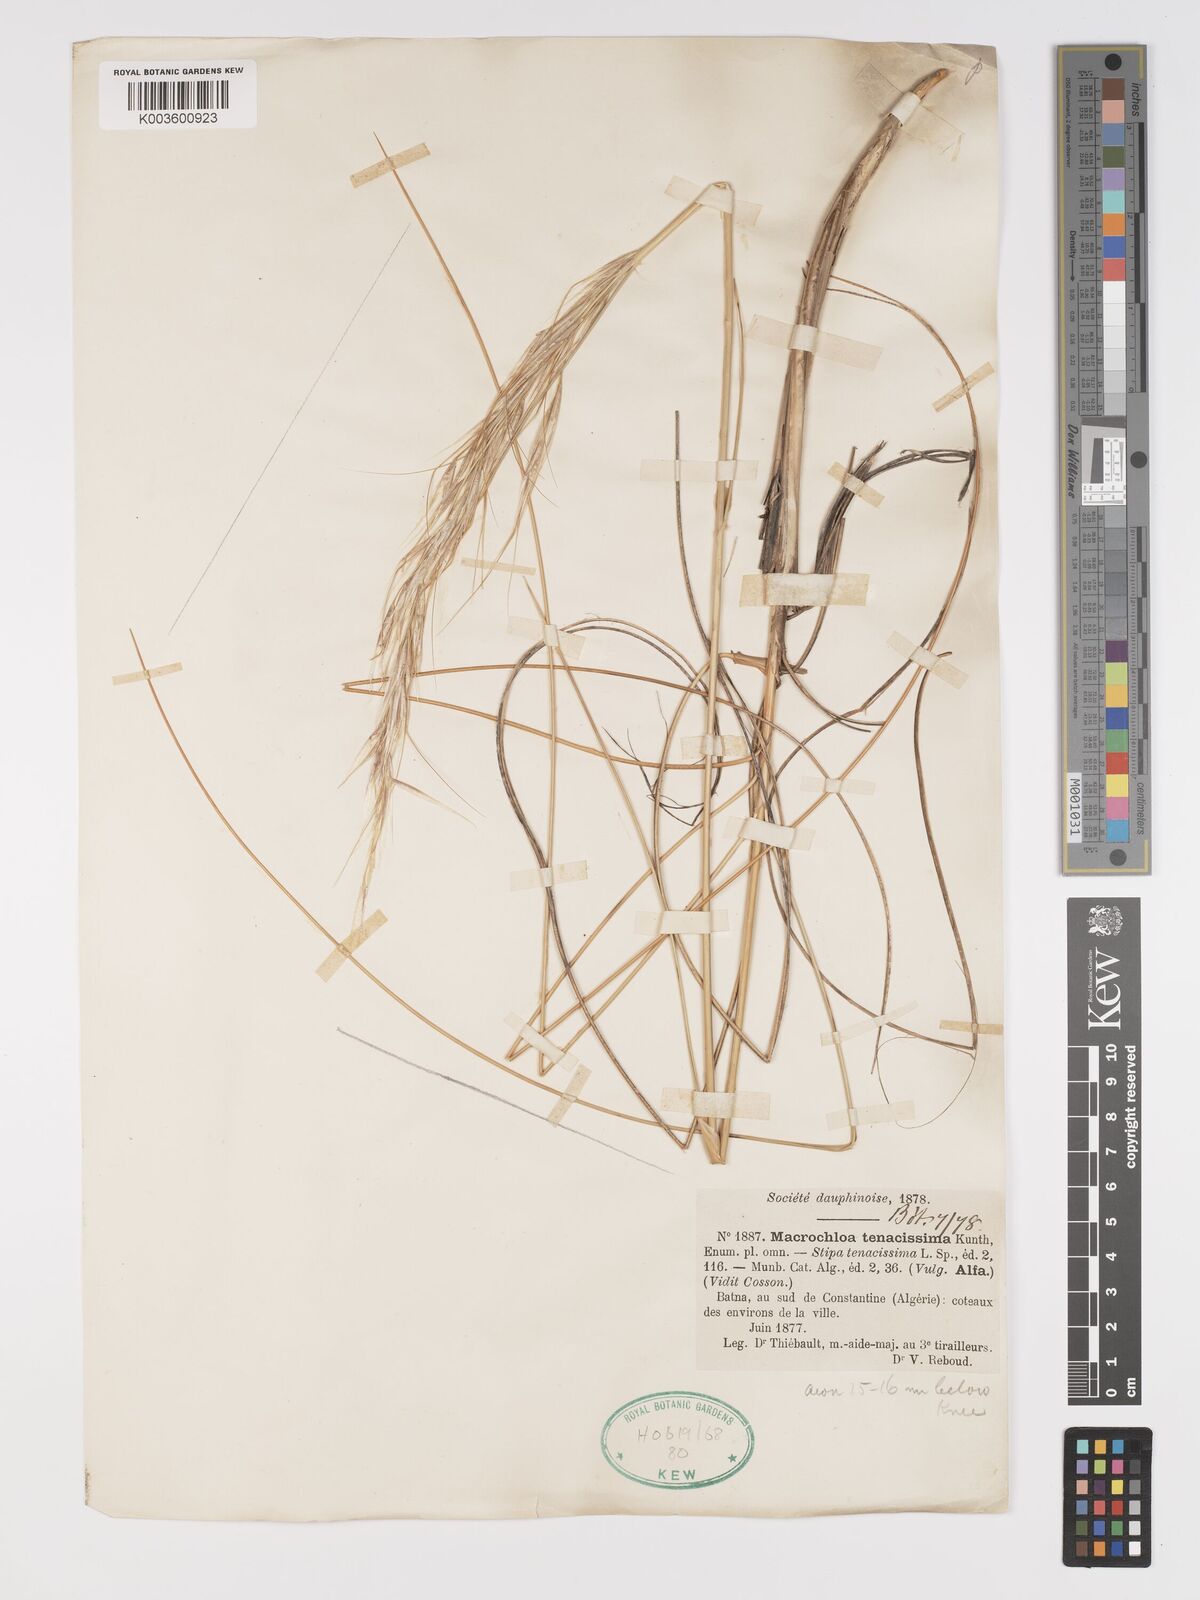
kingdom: Plantae
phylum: Tracheophyta
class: Liliopsida
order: Poales
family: Poaceae
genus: Macrochloa
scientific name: Macrochloa tenacissima
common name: Alfa grass
